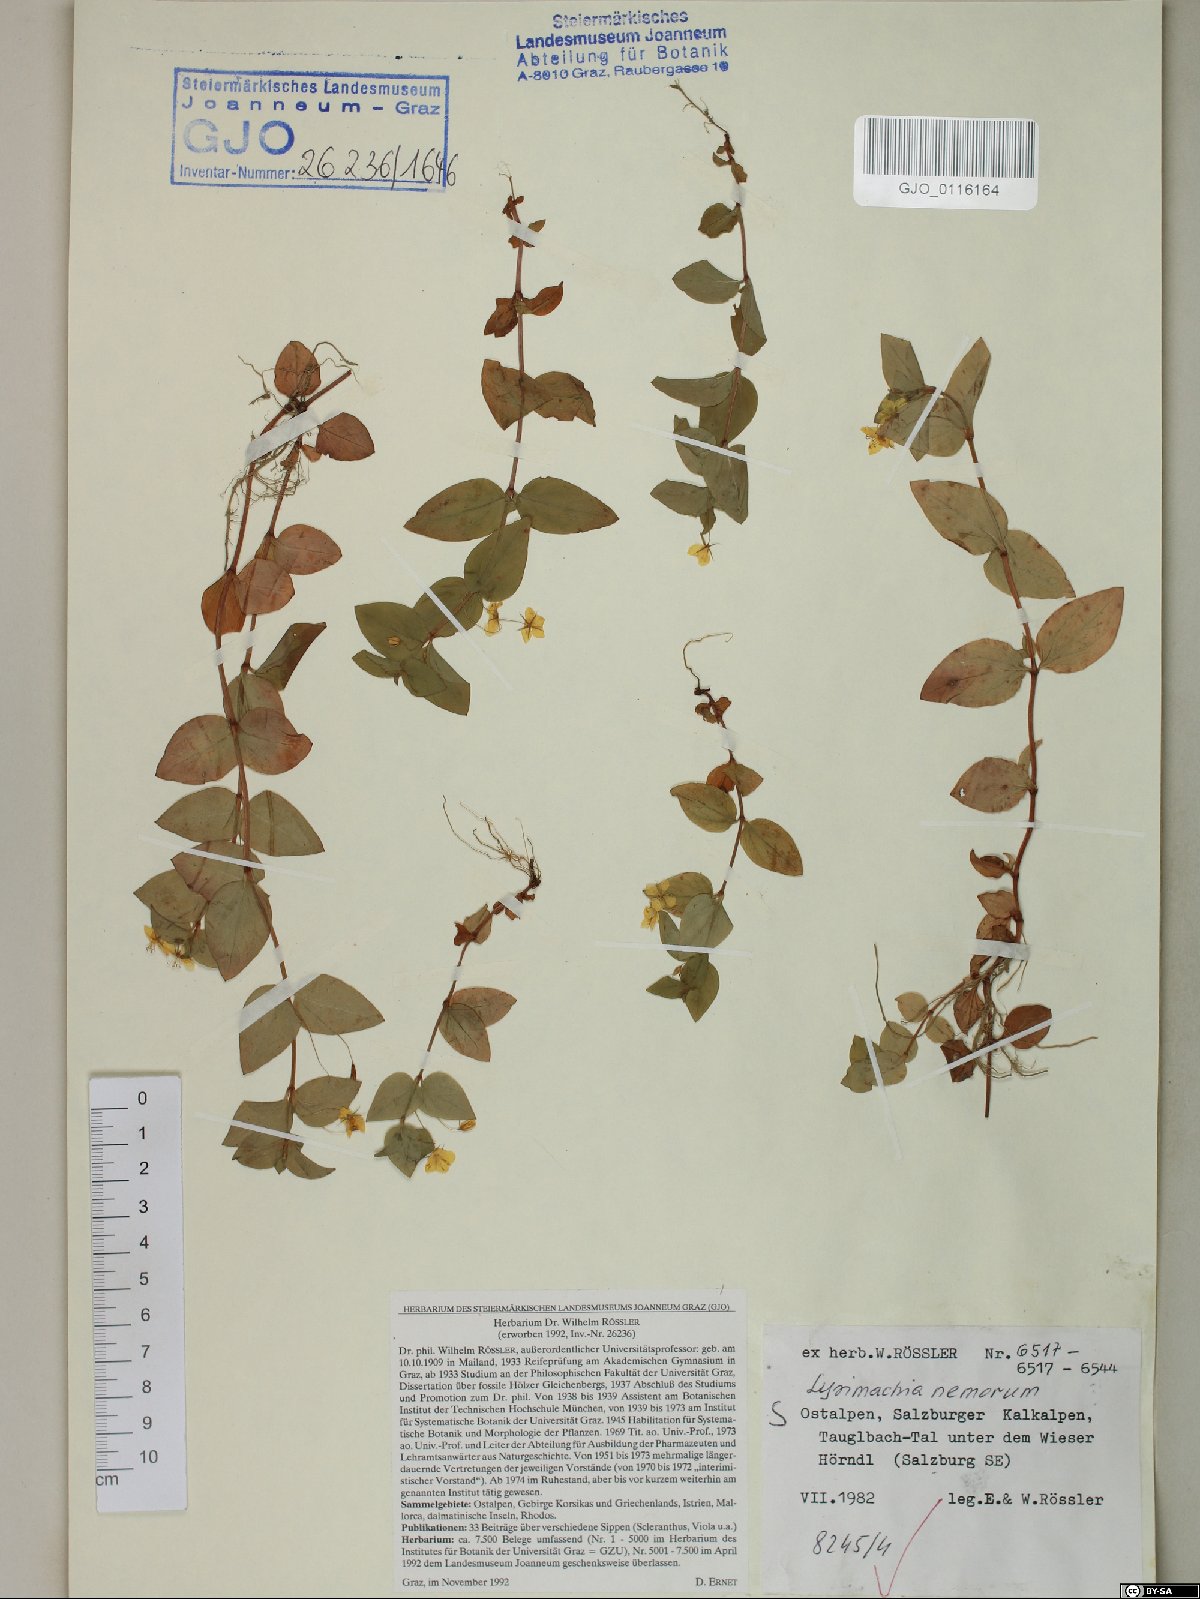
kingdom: Plantae
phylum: Tracheophyta
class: Magnoliopsida
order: Ericales
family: Primulaceae
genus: Lysimachia
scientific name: Lysimachia nemorum
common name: Yellow pimpernel
